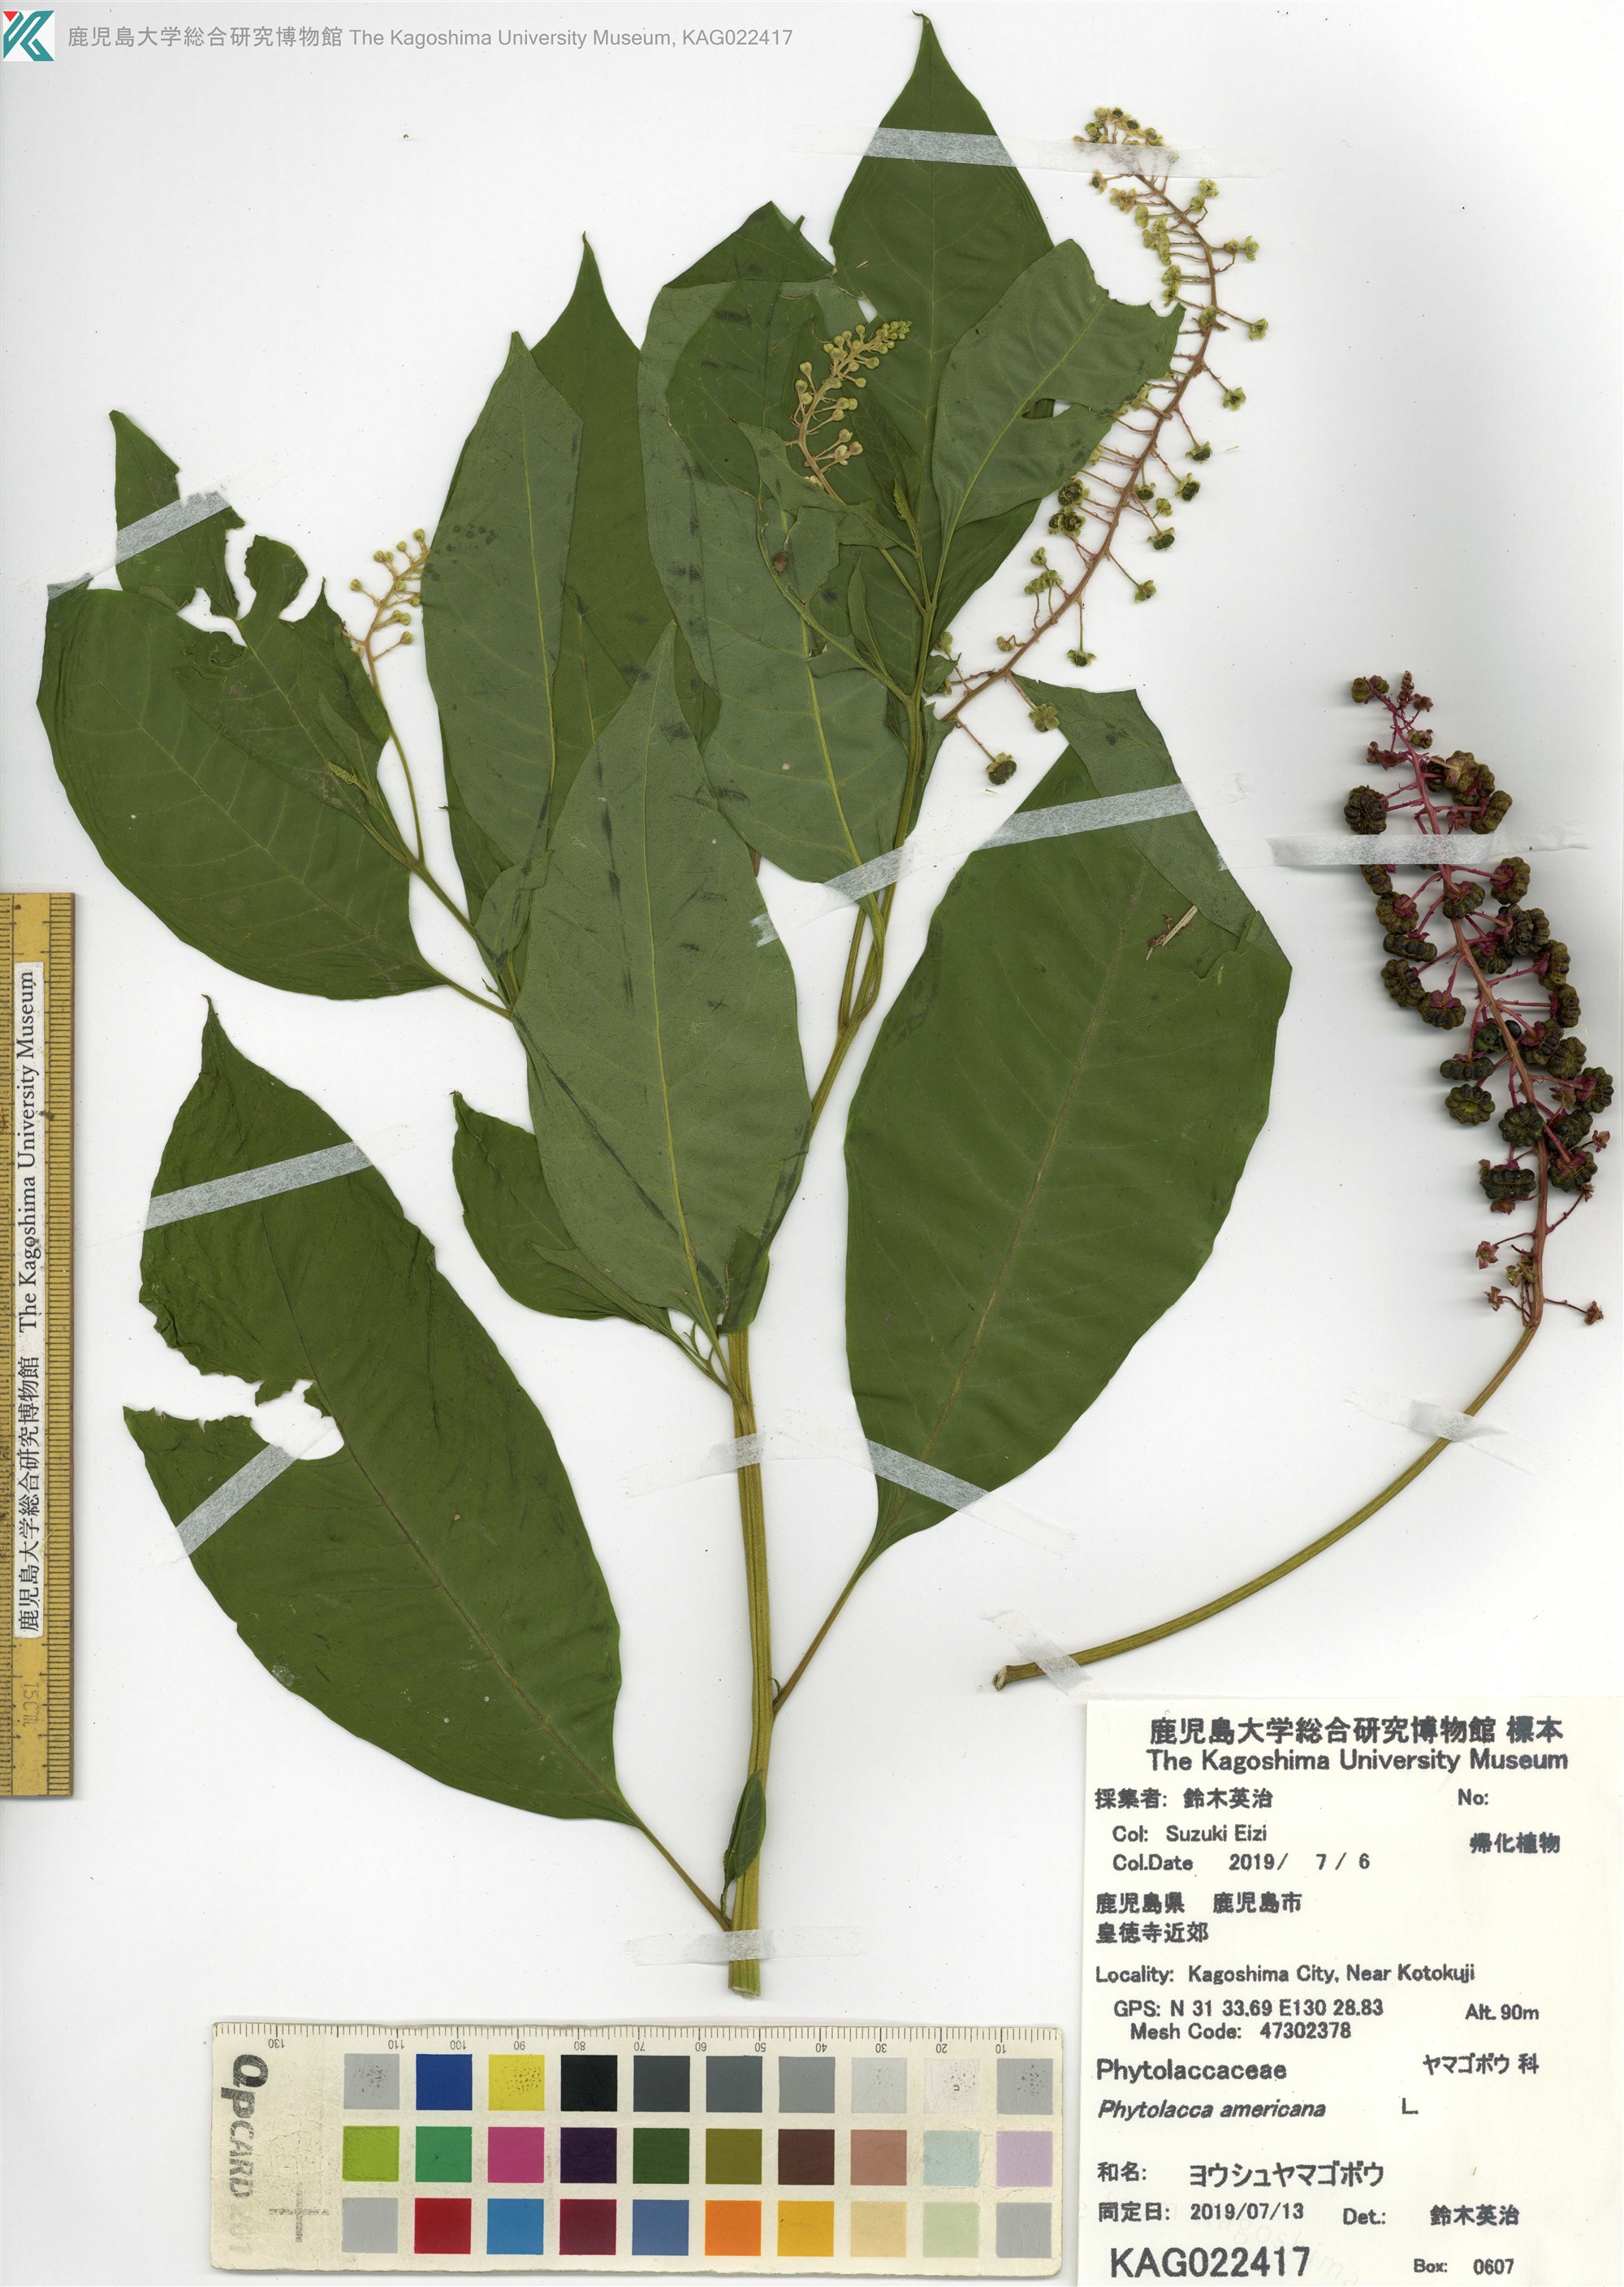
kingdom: Plantae
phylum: Tracheophyta
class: Magnoliopsida
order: Caryophyllales
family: Phytolaccaceae
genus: Phytolacca
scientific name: Phytolacca americana
